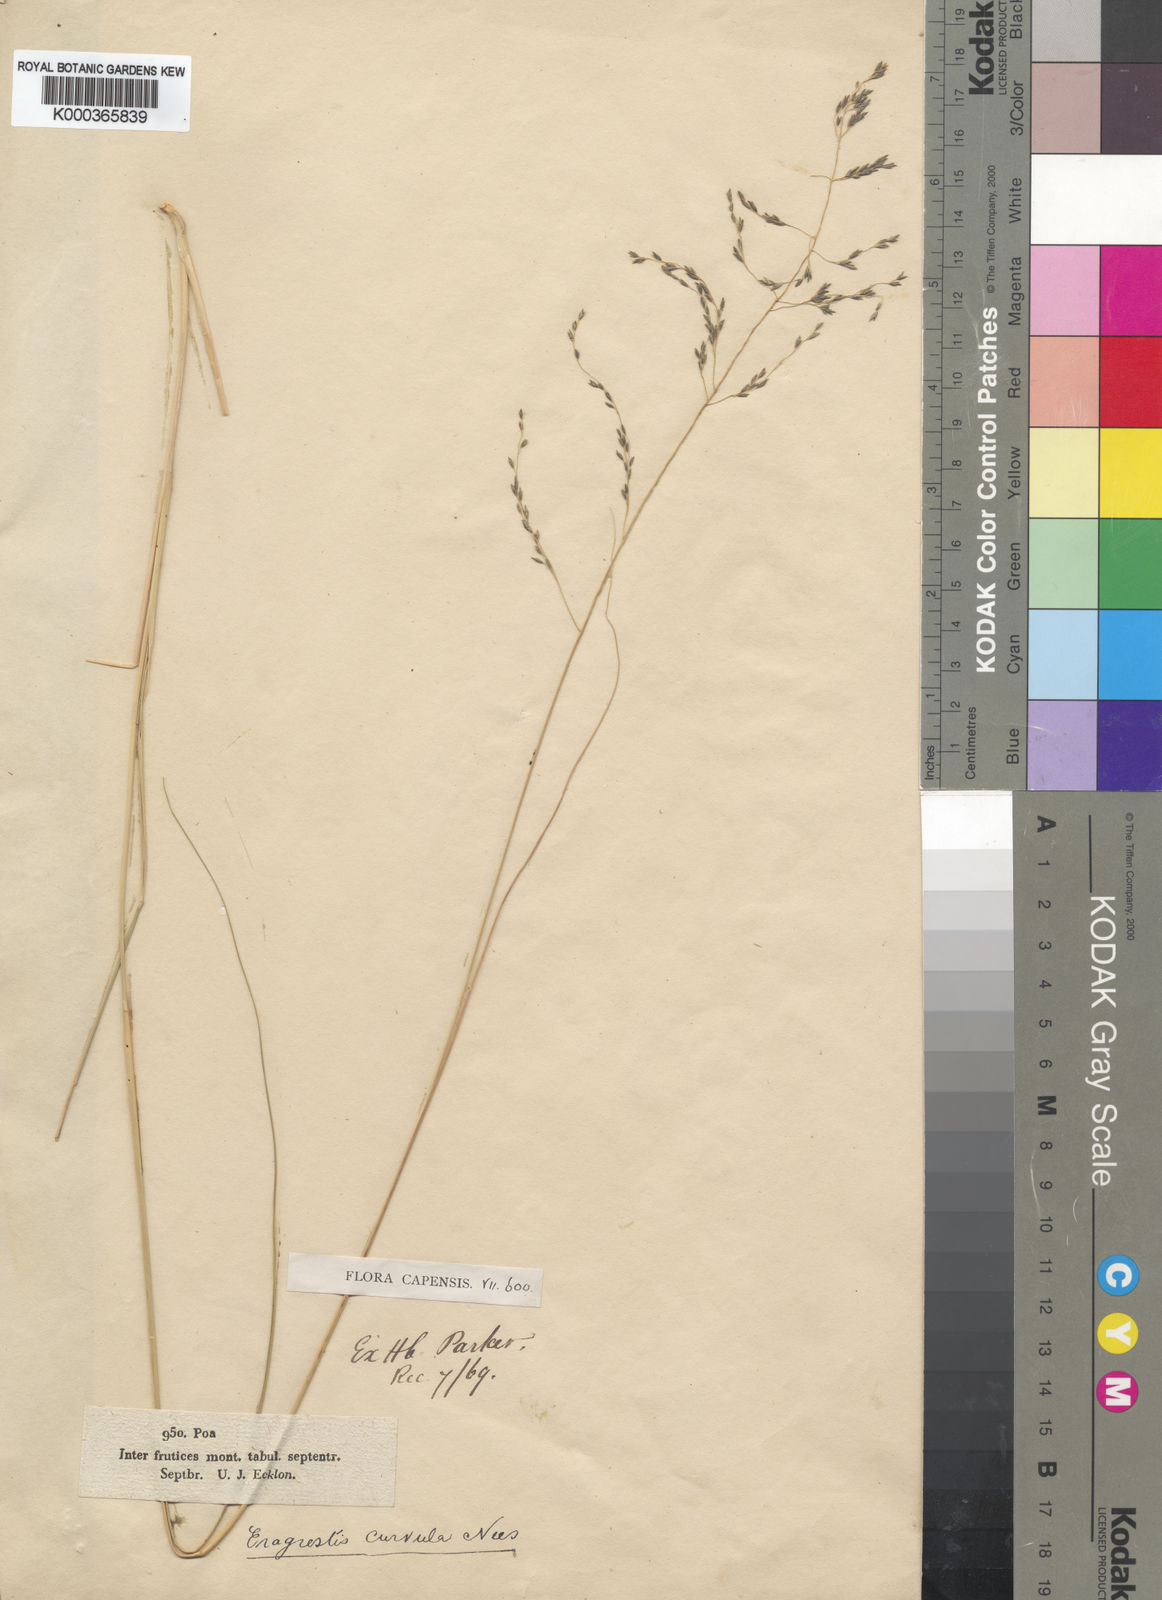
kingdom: Plantae
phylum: Tracheophyta
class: Liliopsida
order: Poales
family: Poaceae
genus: Eragrostis
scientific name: Eragrostis curvula
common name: African love-grass
